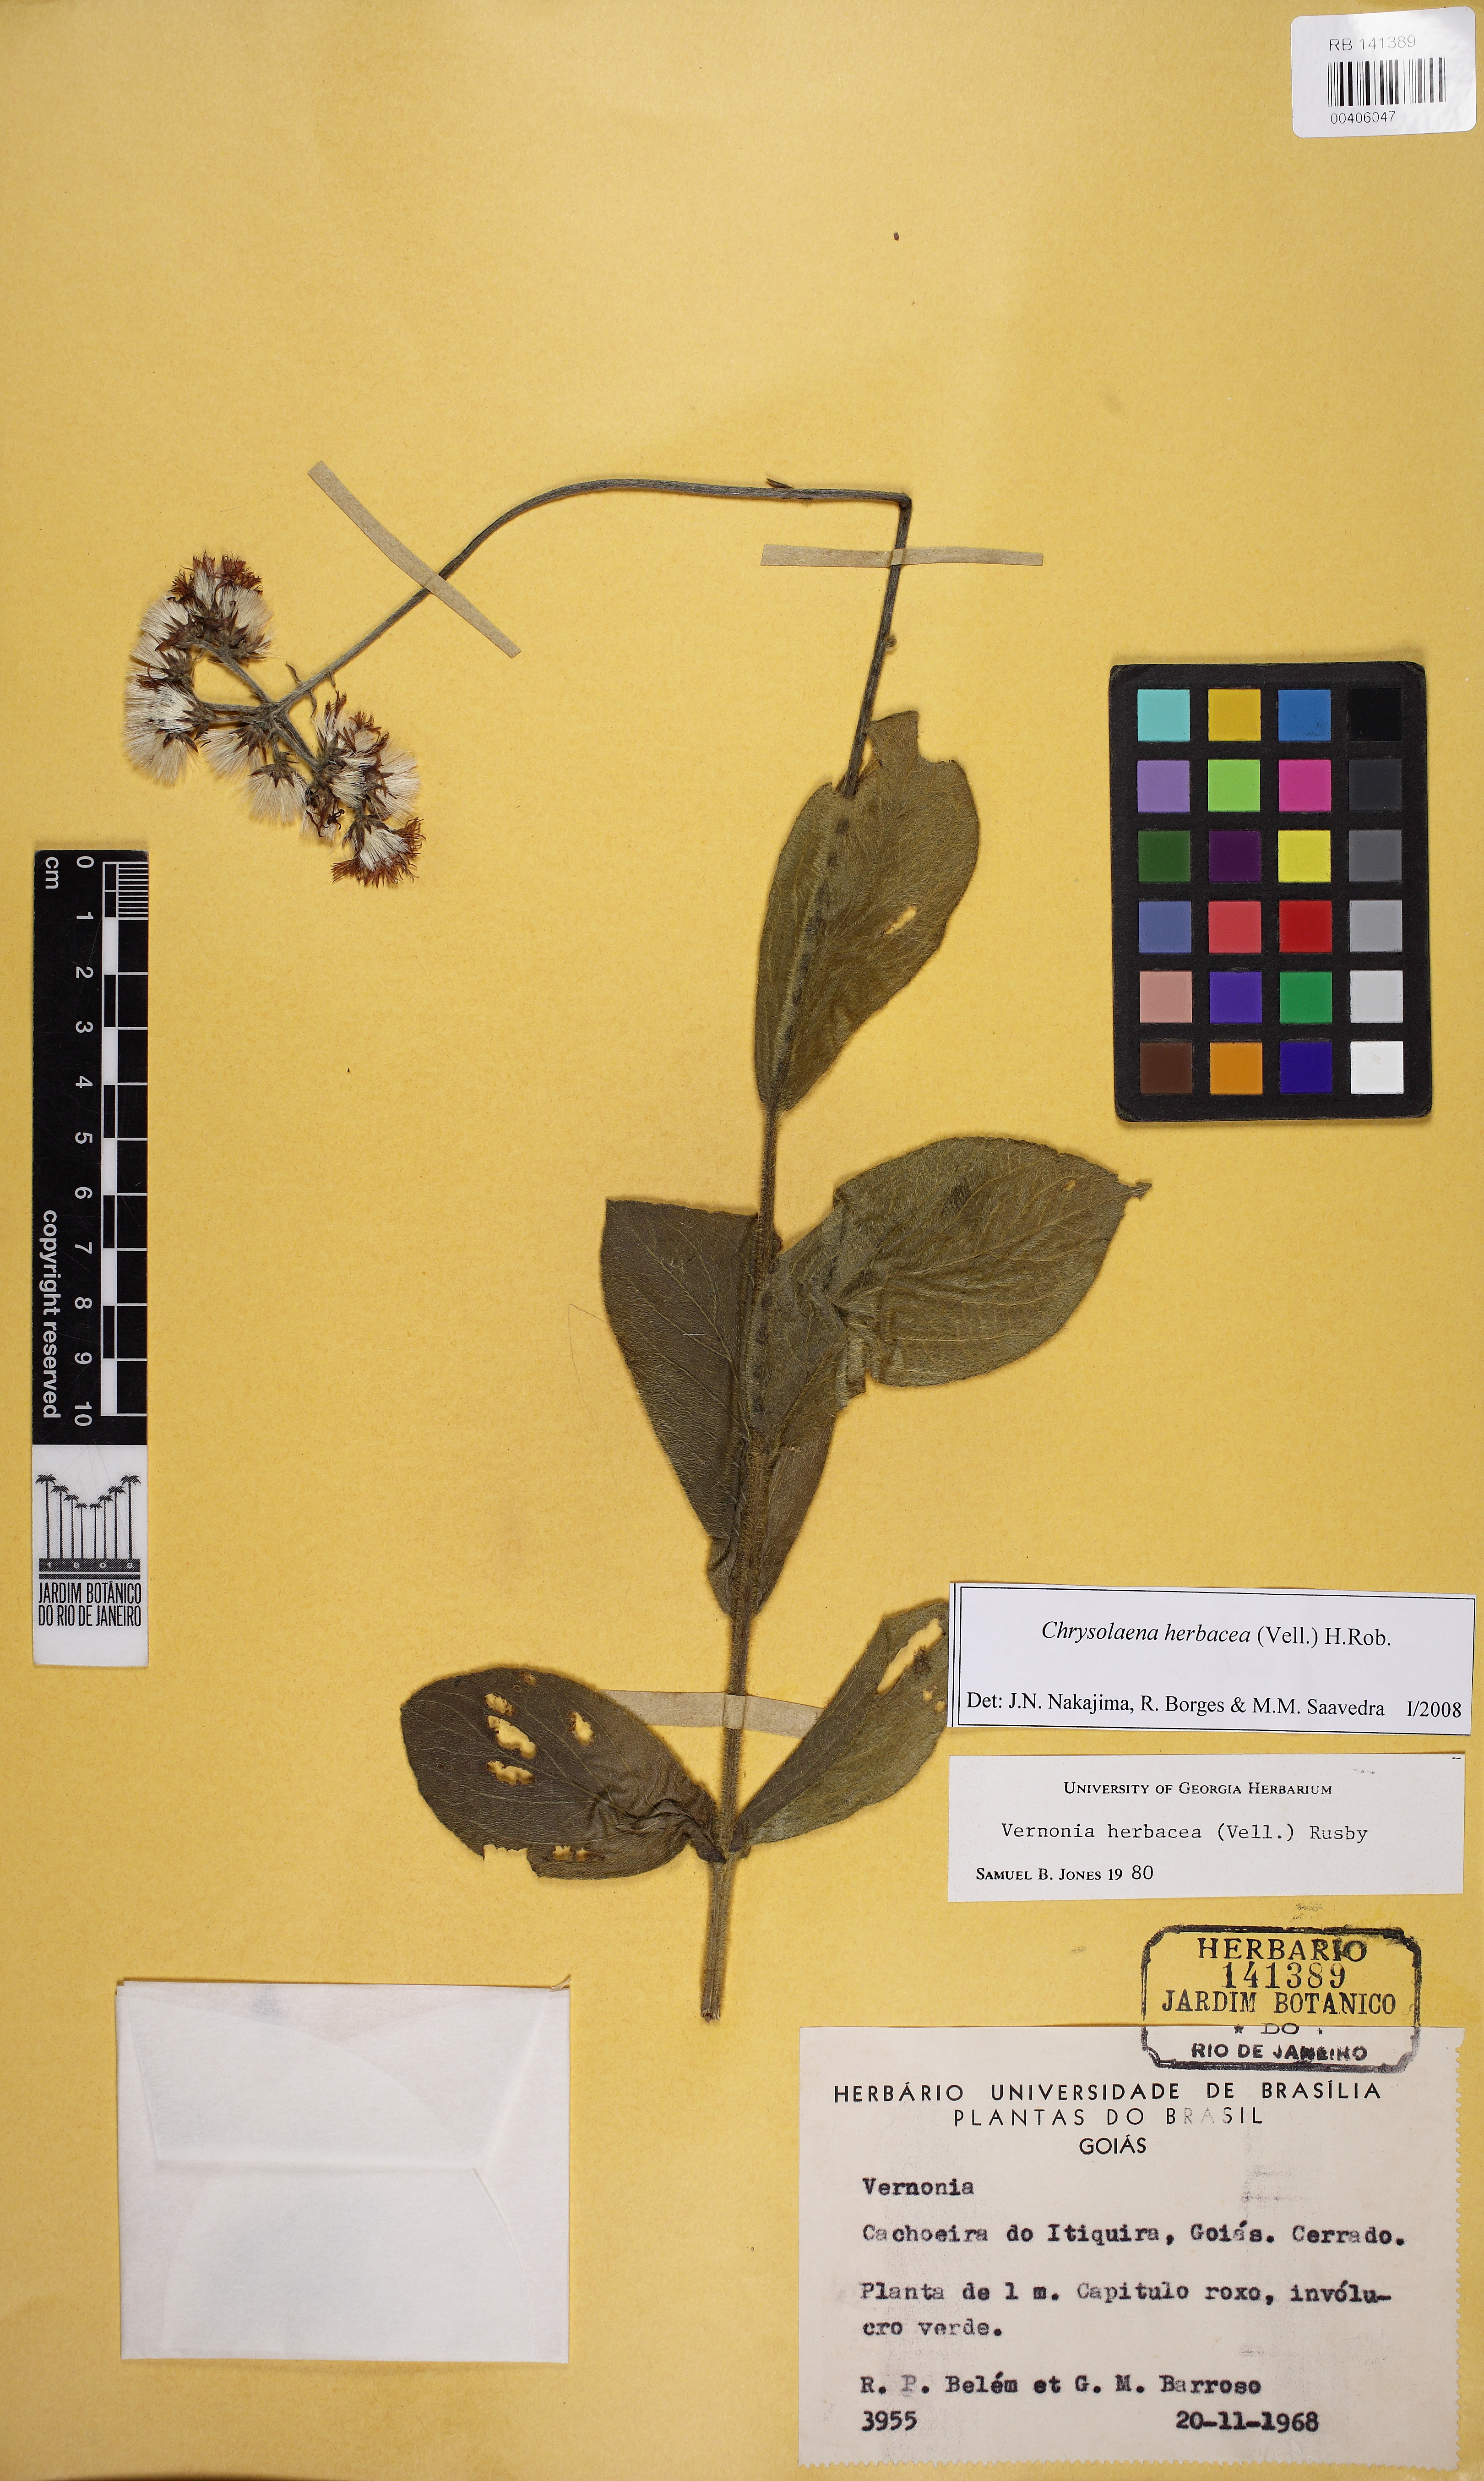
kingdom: Plantae
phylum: Tracheophyta
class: Magnoliopsida
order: Asterales
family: Asteraceae
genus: Chrysolaena
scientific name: Chrysolaena obovata
